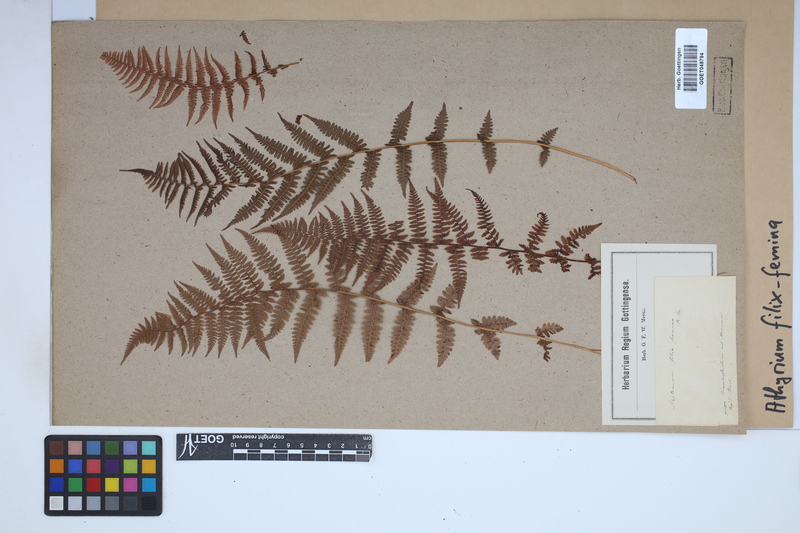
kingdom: Plantae
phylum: Tracheophyta
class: Polypodiopsida
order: Polypodiales
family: Athyriaceae
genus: Athyrium
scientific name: Athyrium filix-femina
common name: Lady fern
